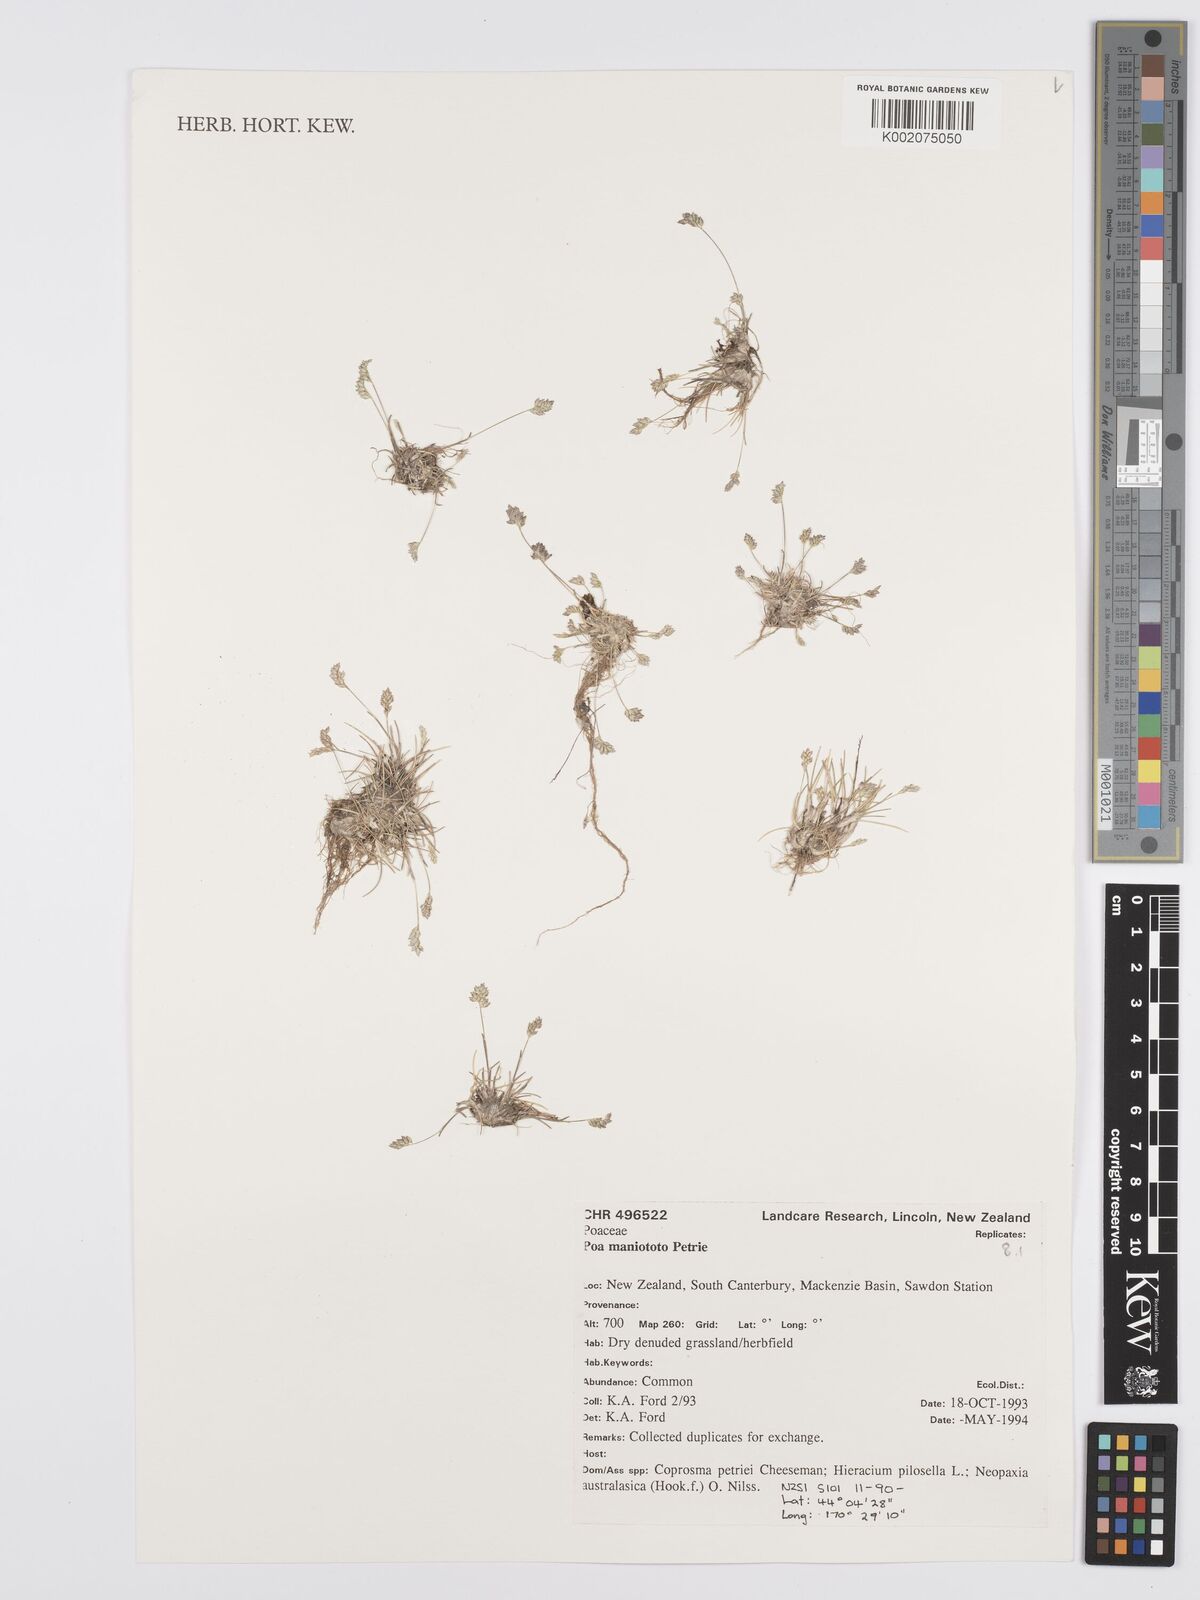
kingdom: Plantae
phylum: Tracheophyta
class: Liliopsida
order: Poales
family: Poaceae
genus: Poa
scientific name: Poa maniototo
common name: Desert poa
